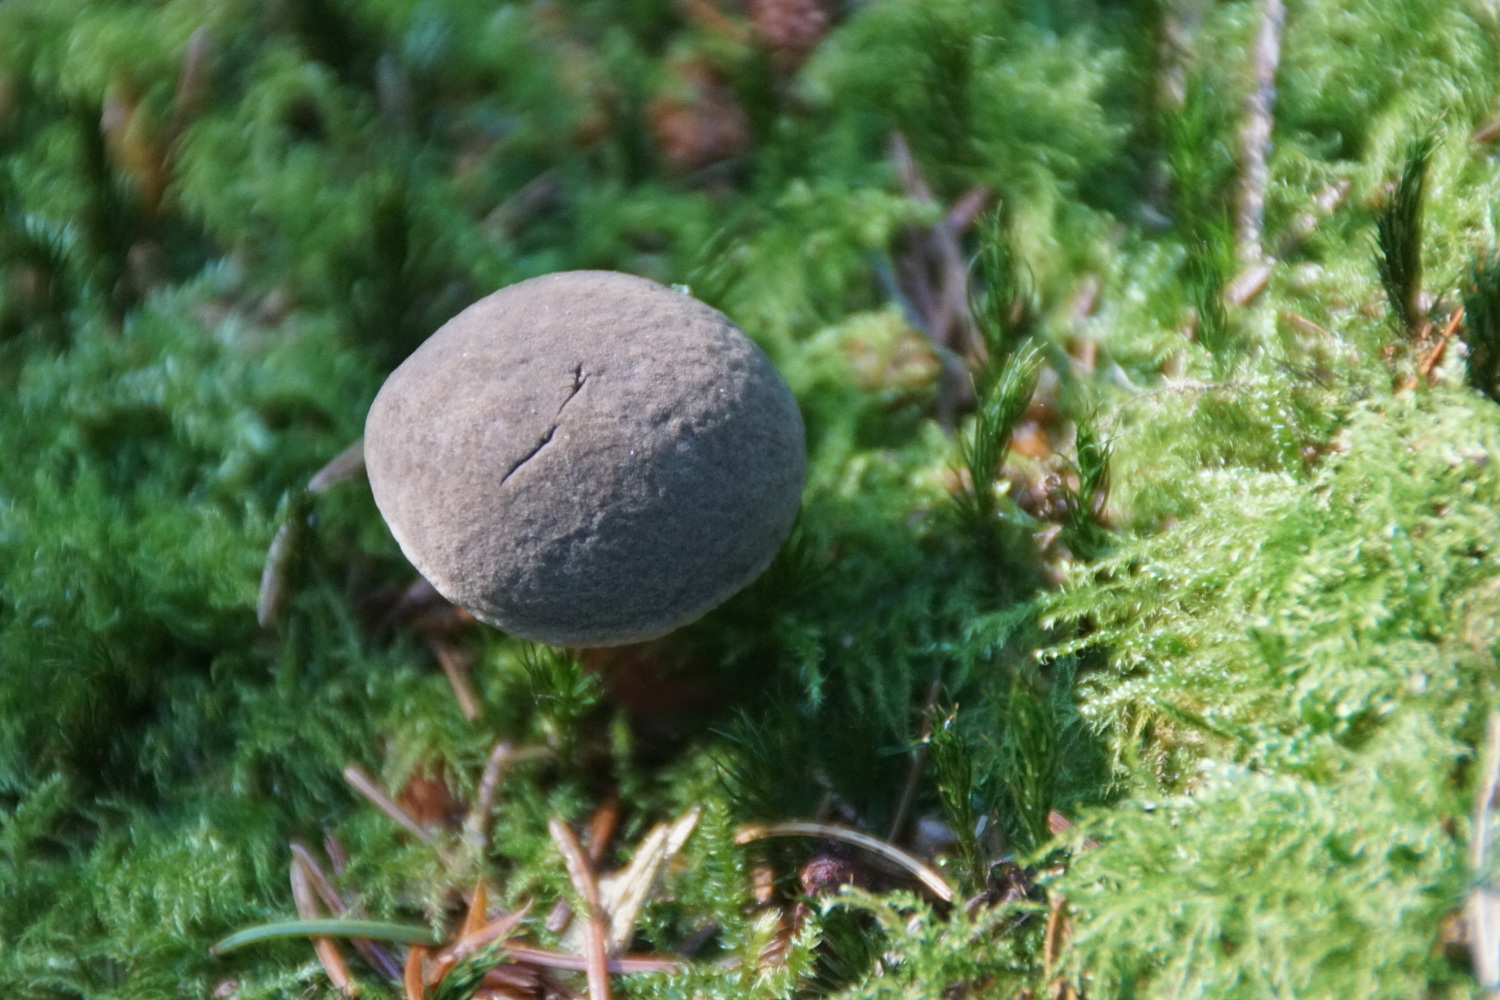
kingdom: Fungi
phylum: Basidiomycota
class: Agaricomycetes
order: Boletales
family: Boletaceae
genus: Xerocomellus
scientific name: Xerocomellus chrysenteron
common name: rødsprukken rørhat
